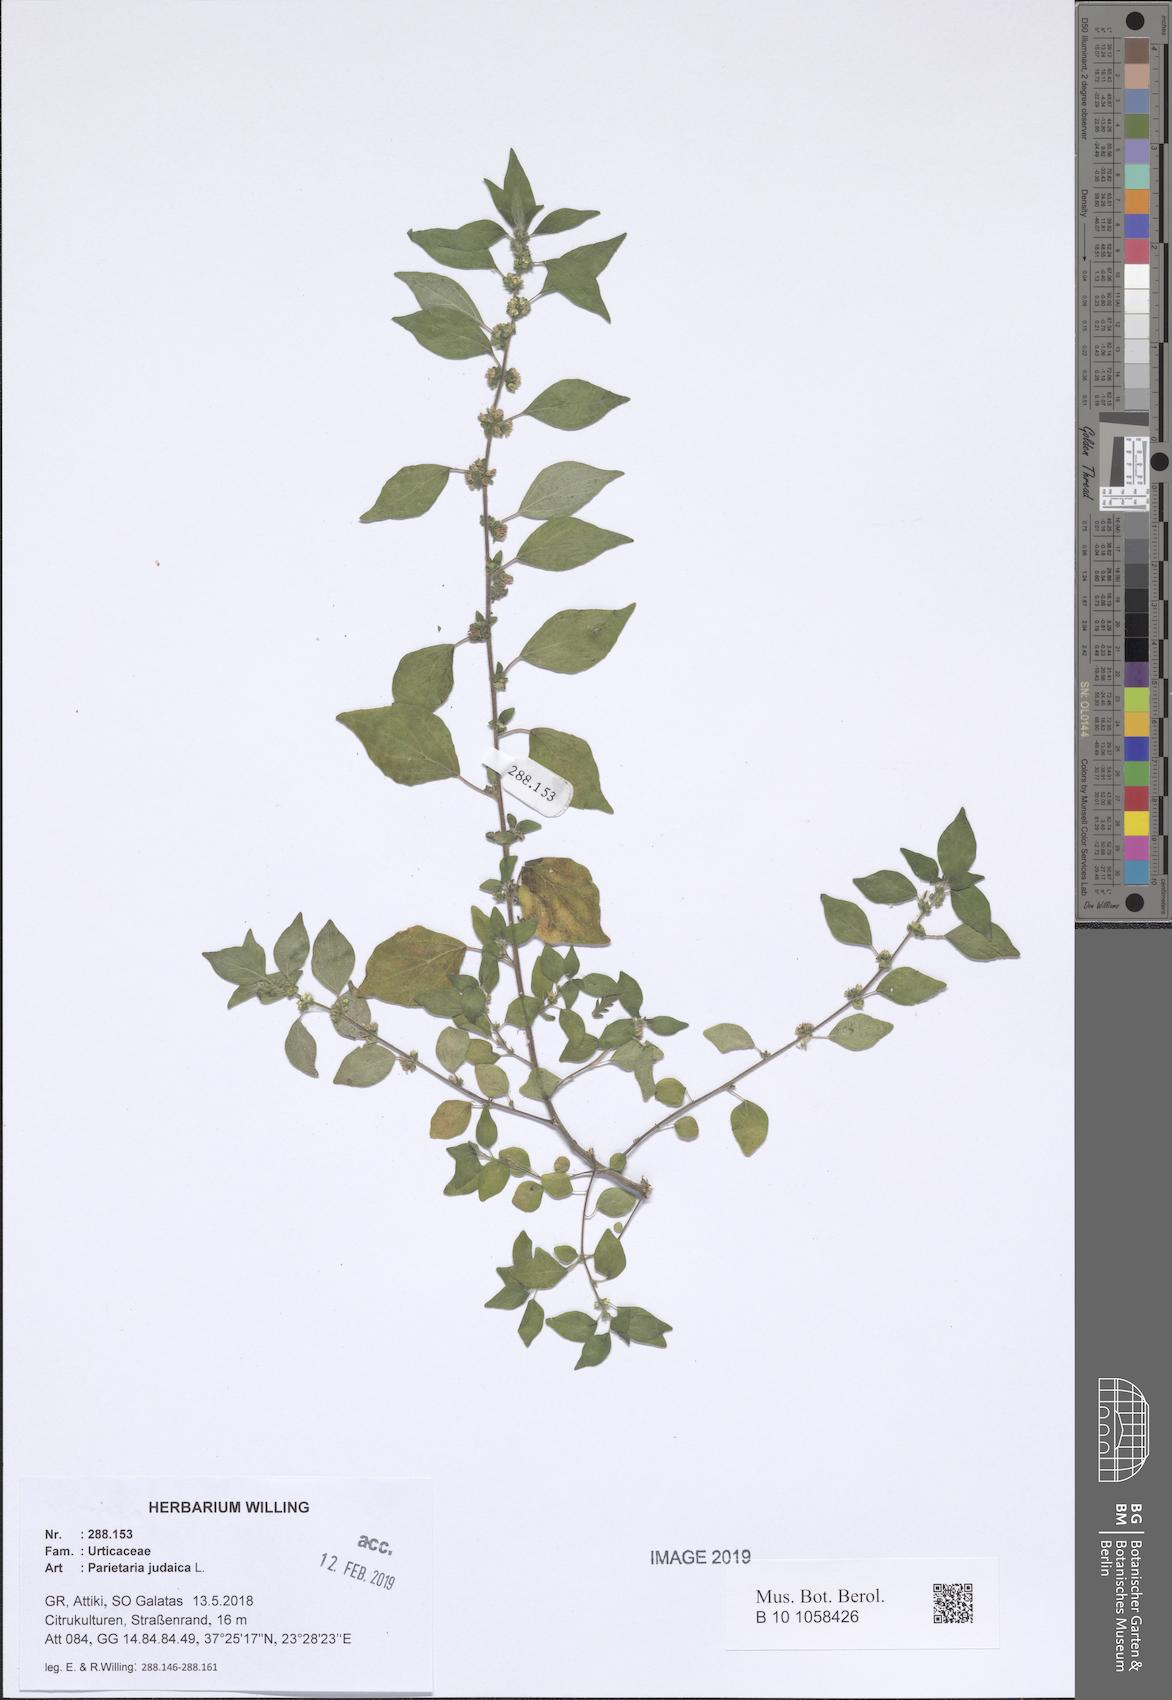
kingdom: Plantae
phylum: Tracheophyta
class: Magnoliopsida
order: Rosales
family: Urticaceae
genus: Parietaria
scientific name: Parietaria judaica
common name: Pellitory-of-the-wall
